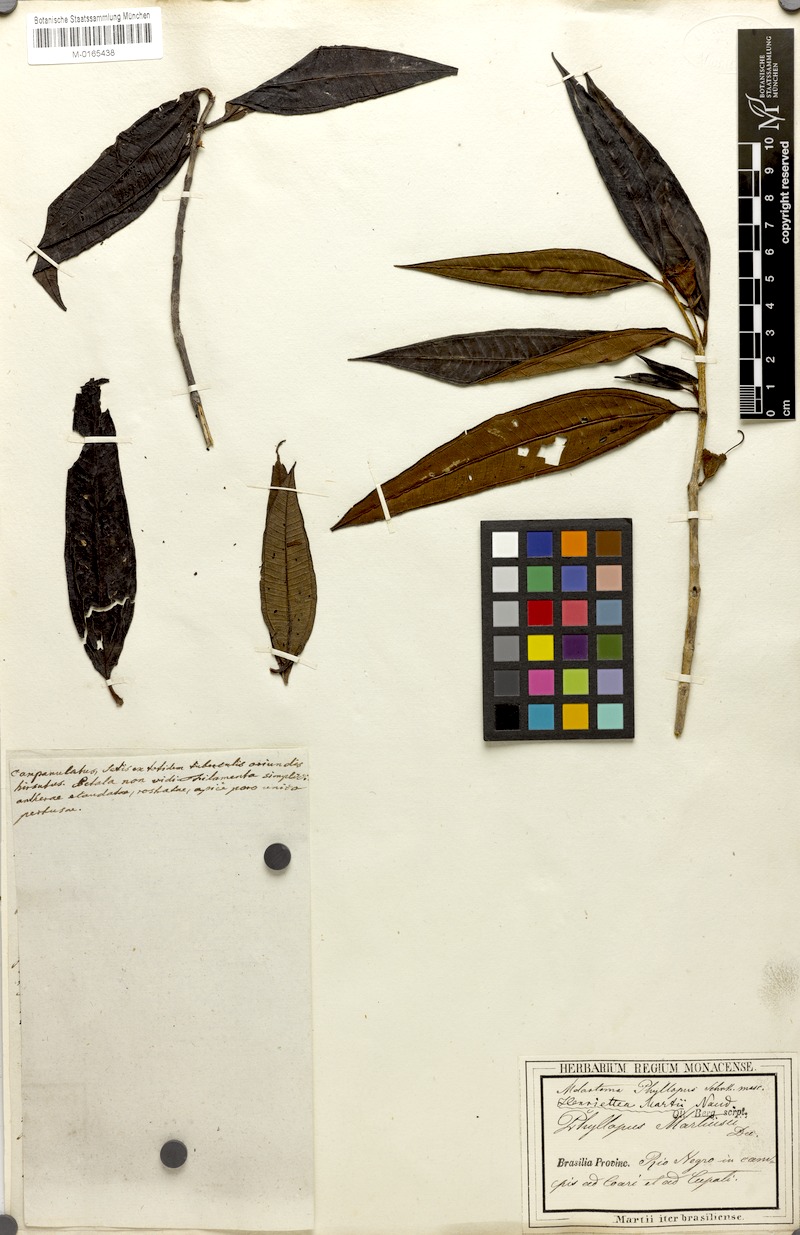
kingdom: Plantae
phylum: Tracheophyta
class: Magnoliopsida
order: Myrtales
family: Melastomataceae
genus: Henriettea
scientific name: Henriettea martiusii
